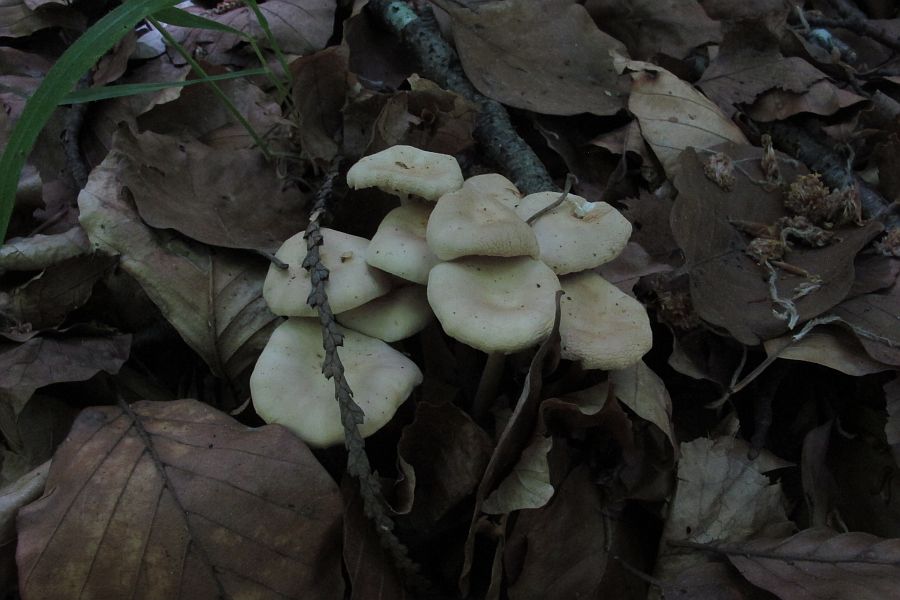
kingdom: Fungi
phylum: Basidiomycota
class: Agaricomycetes
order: Agaricales
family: Omphalotaceae
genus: Gymnopus
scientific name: Gymnopus aquosus
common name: bleg fladhat
